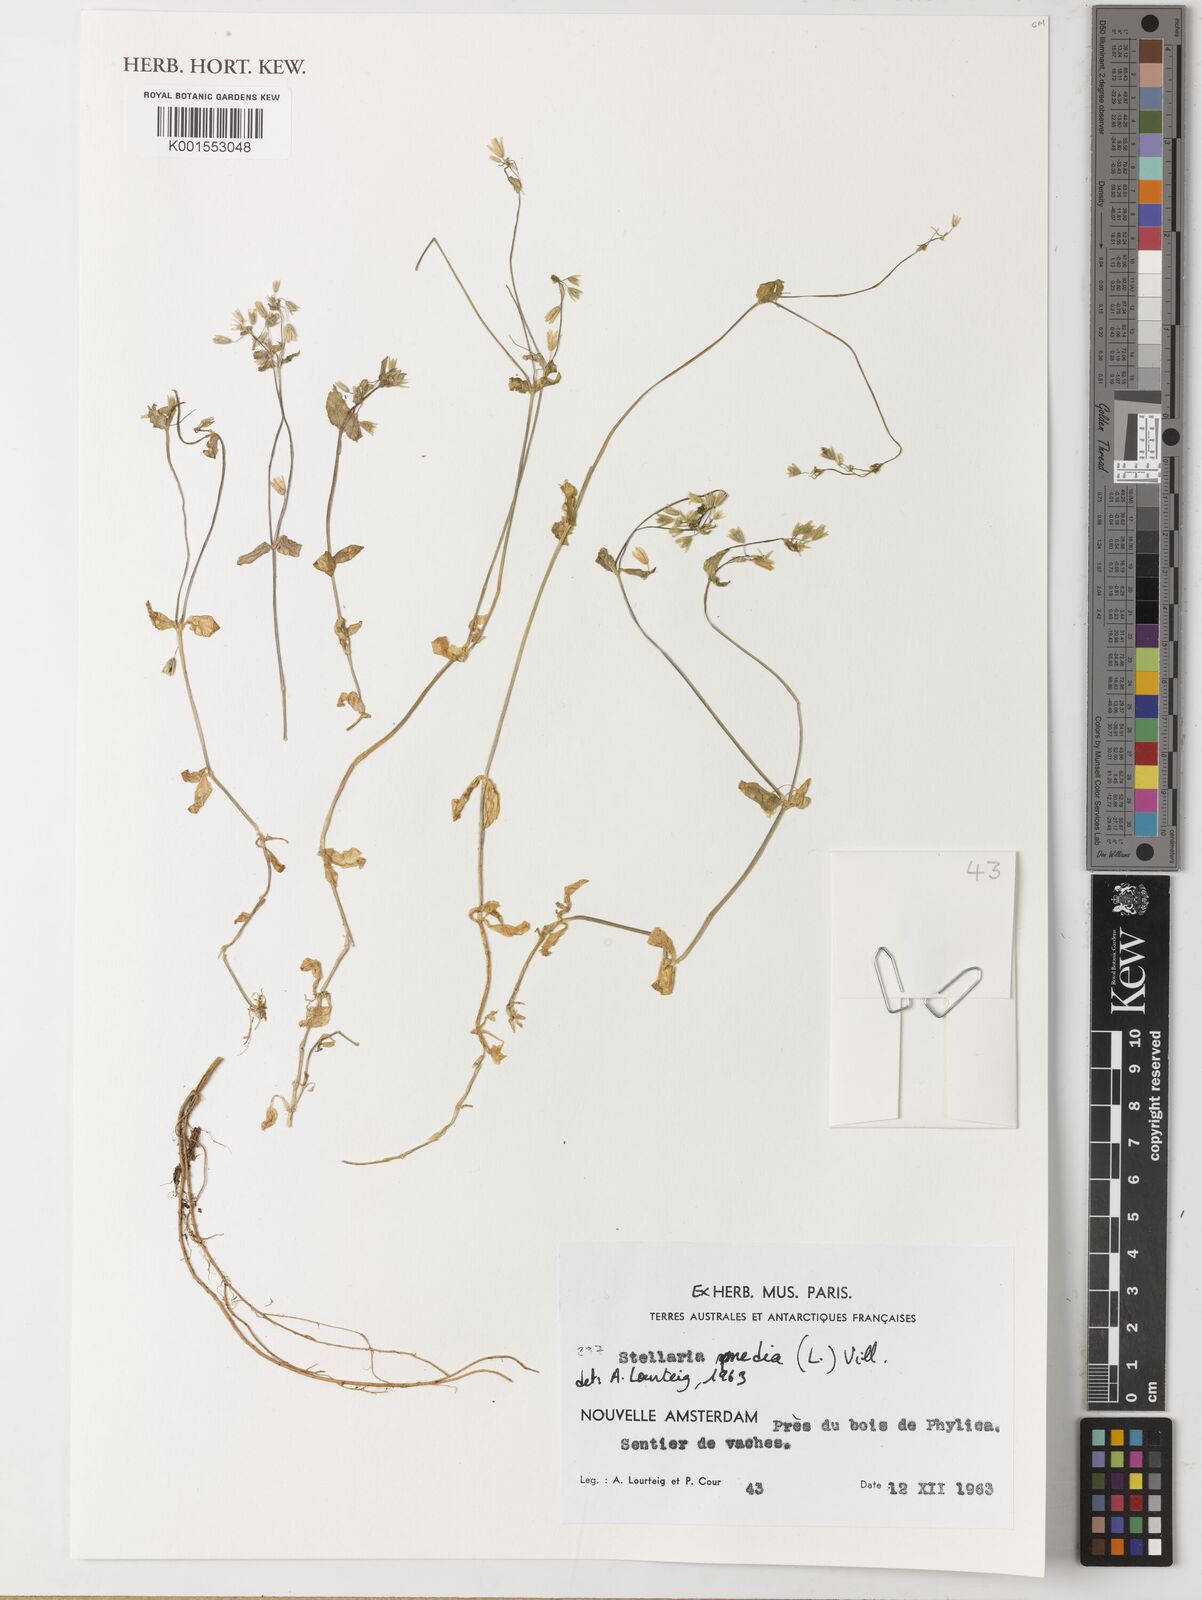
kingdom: Plantae
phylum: Tracheophyta
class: Magnoliopsida
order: Caryophyllales
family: Caryophyllaceae
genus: Stellaria
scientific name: Stellaria media
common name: Common chickweed
